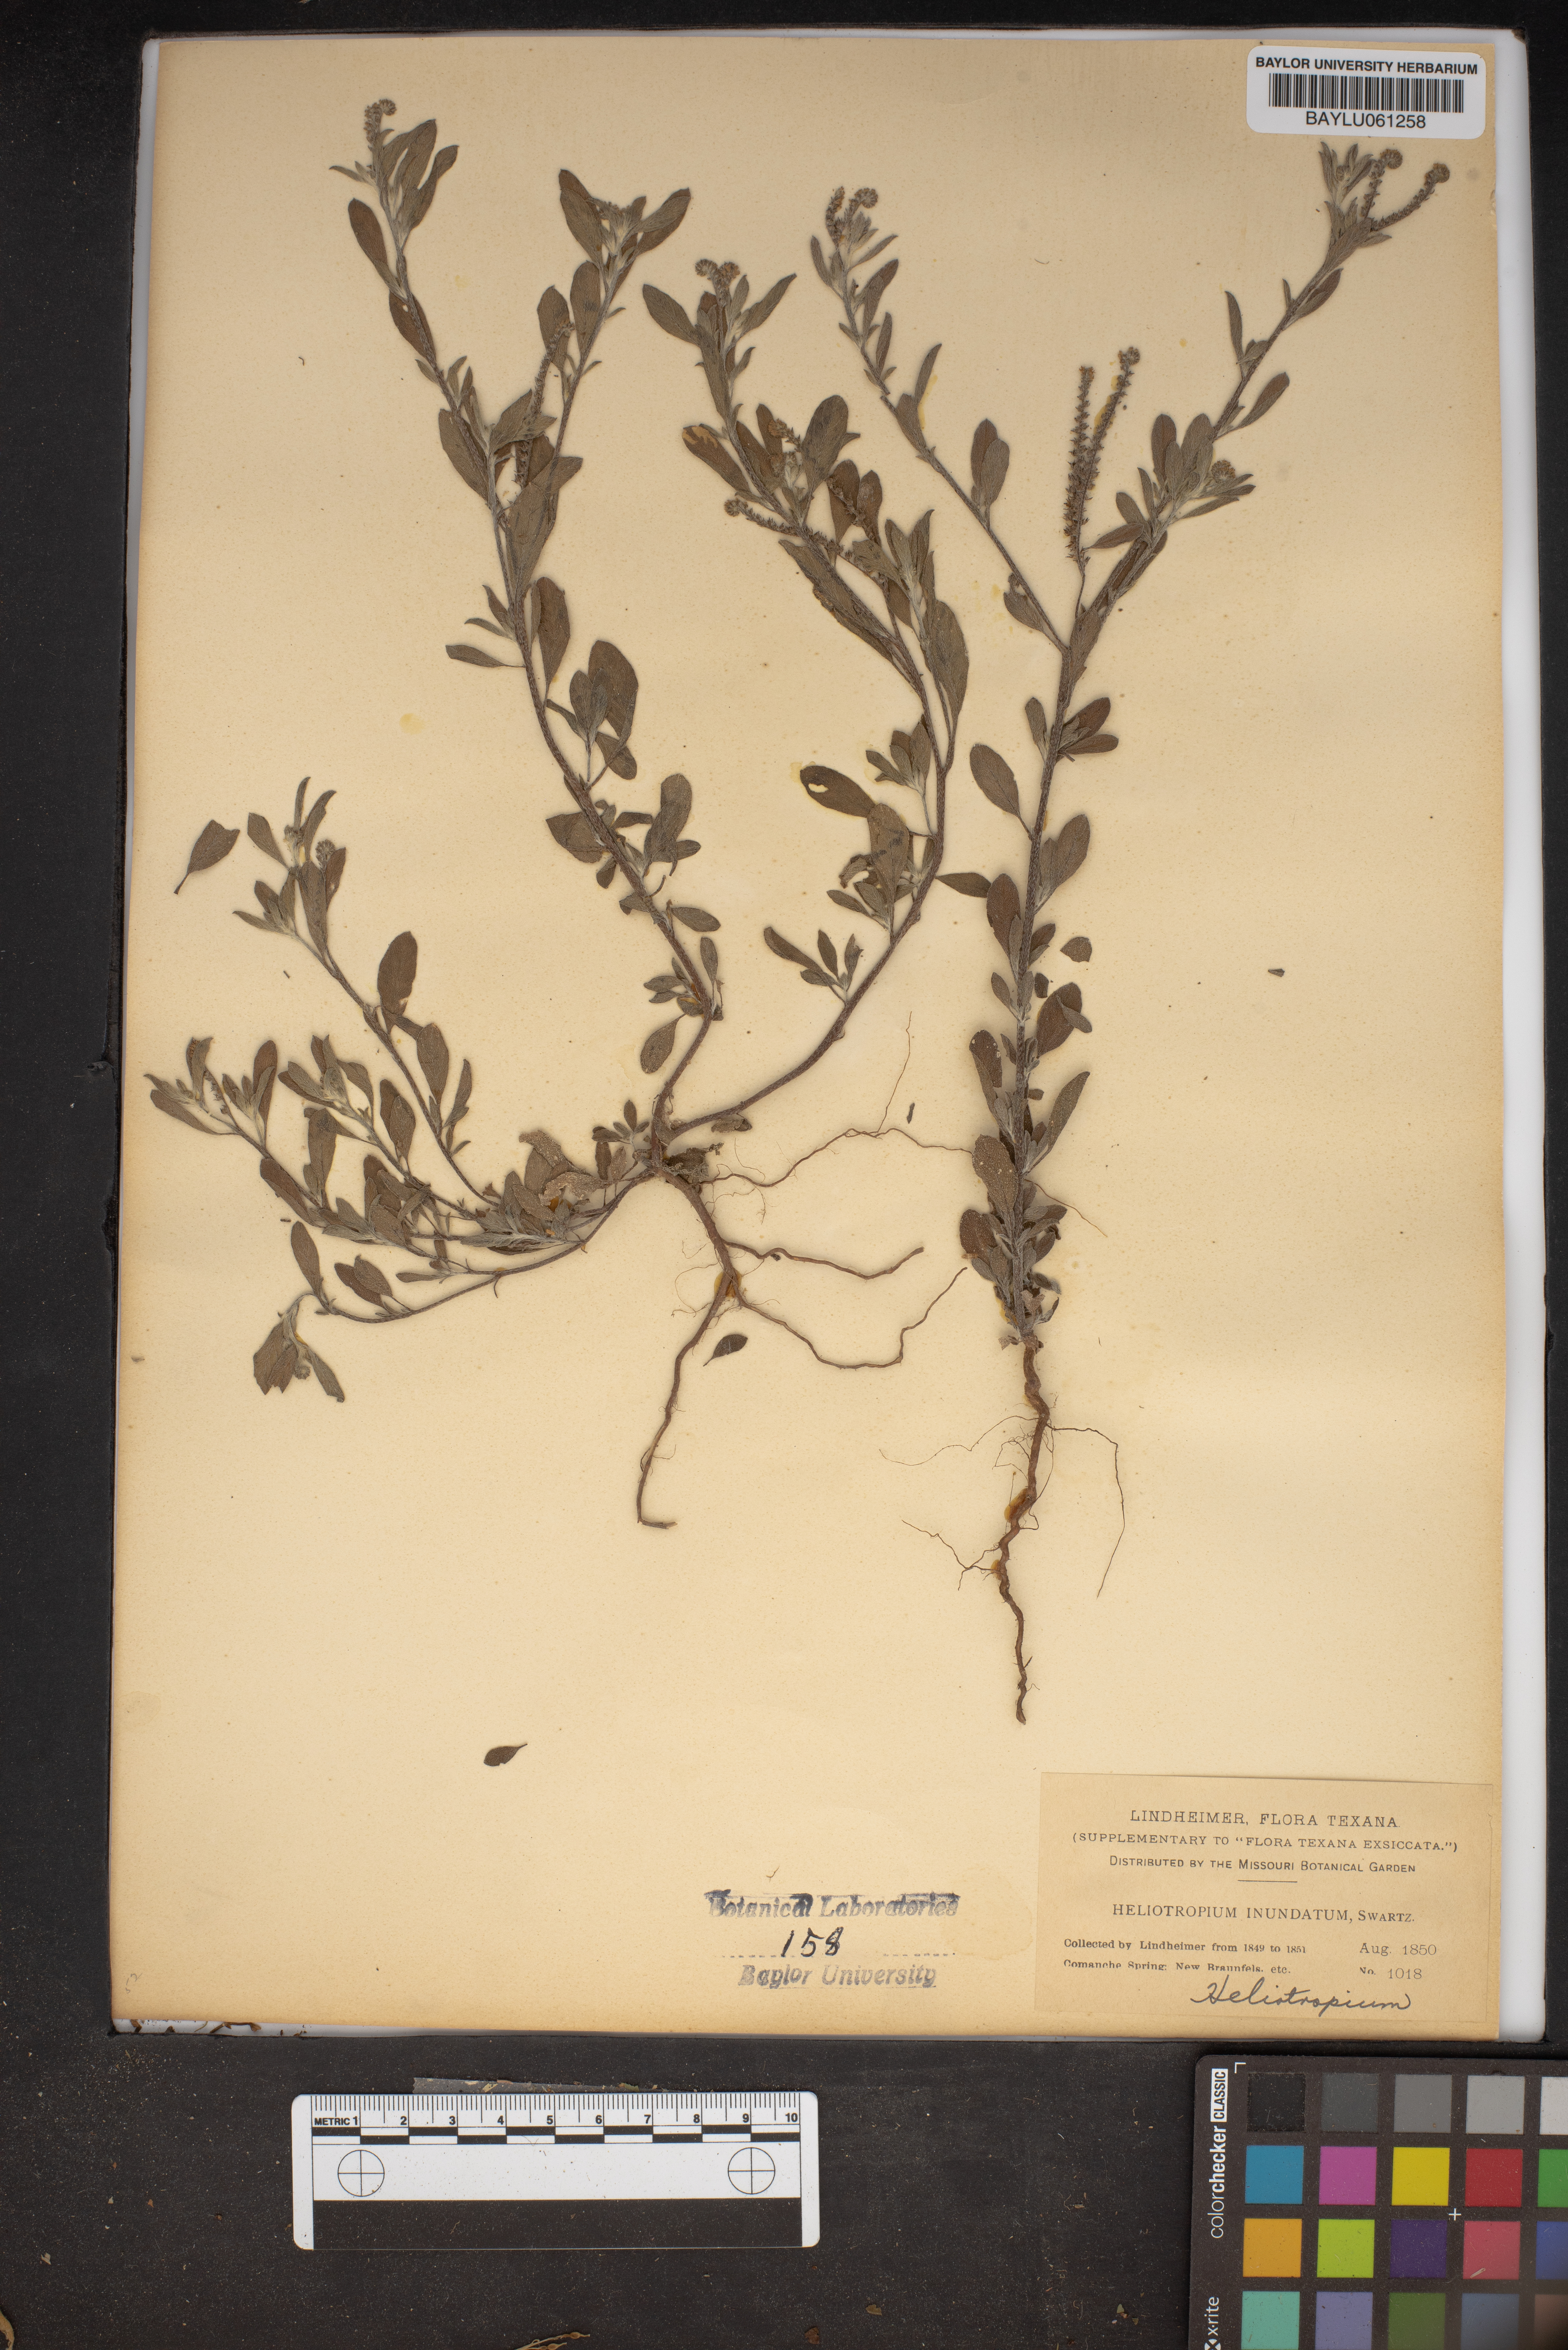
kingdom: Plantae
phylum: Tracheophyta
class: Magnoliopsida
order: Boraginales
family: Heliotropiaceae
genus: Euploca
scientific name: Euploca procumbens
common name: Fourspike heliotrope
